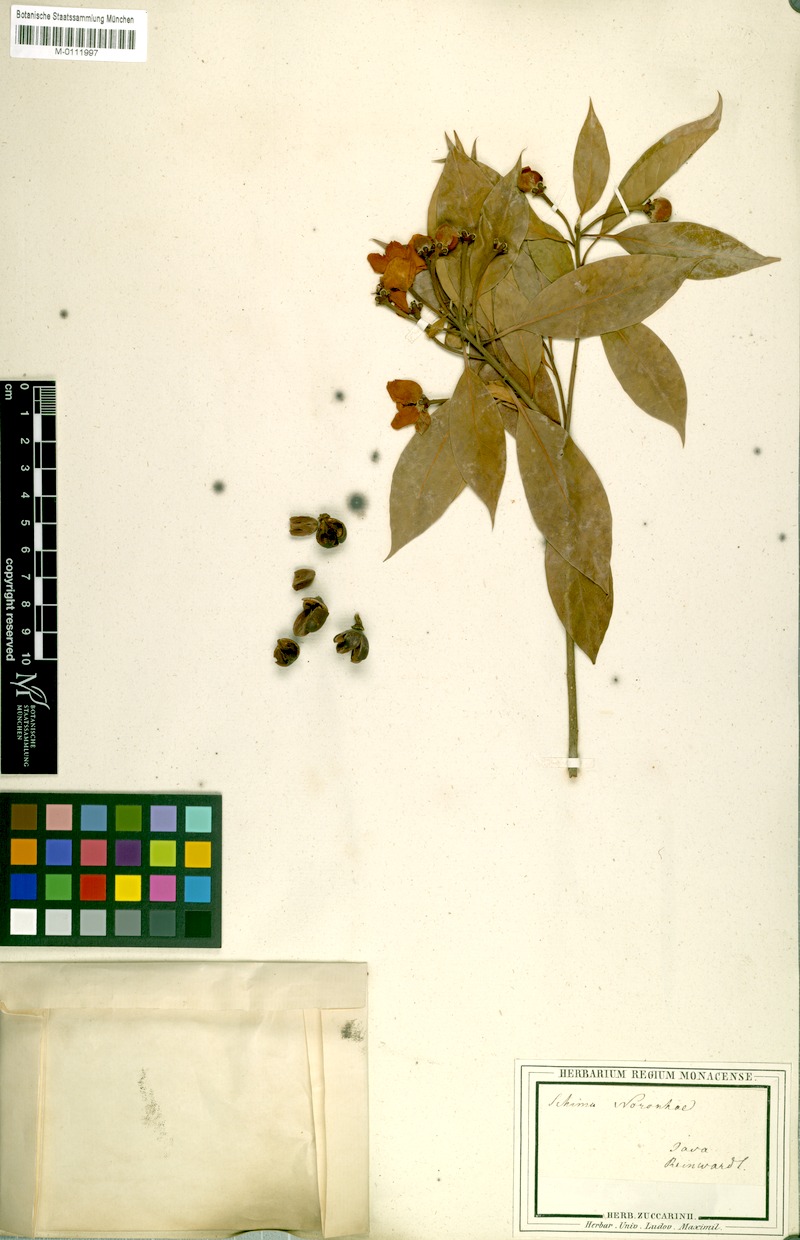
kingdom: Plantae
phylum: Tracheophyta
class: Magnoliopsida
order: Ericales
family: Theaceae
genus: Schima
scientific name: Schima noronhae
